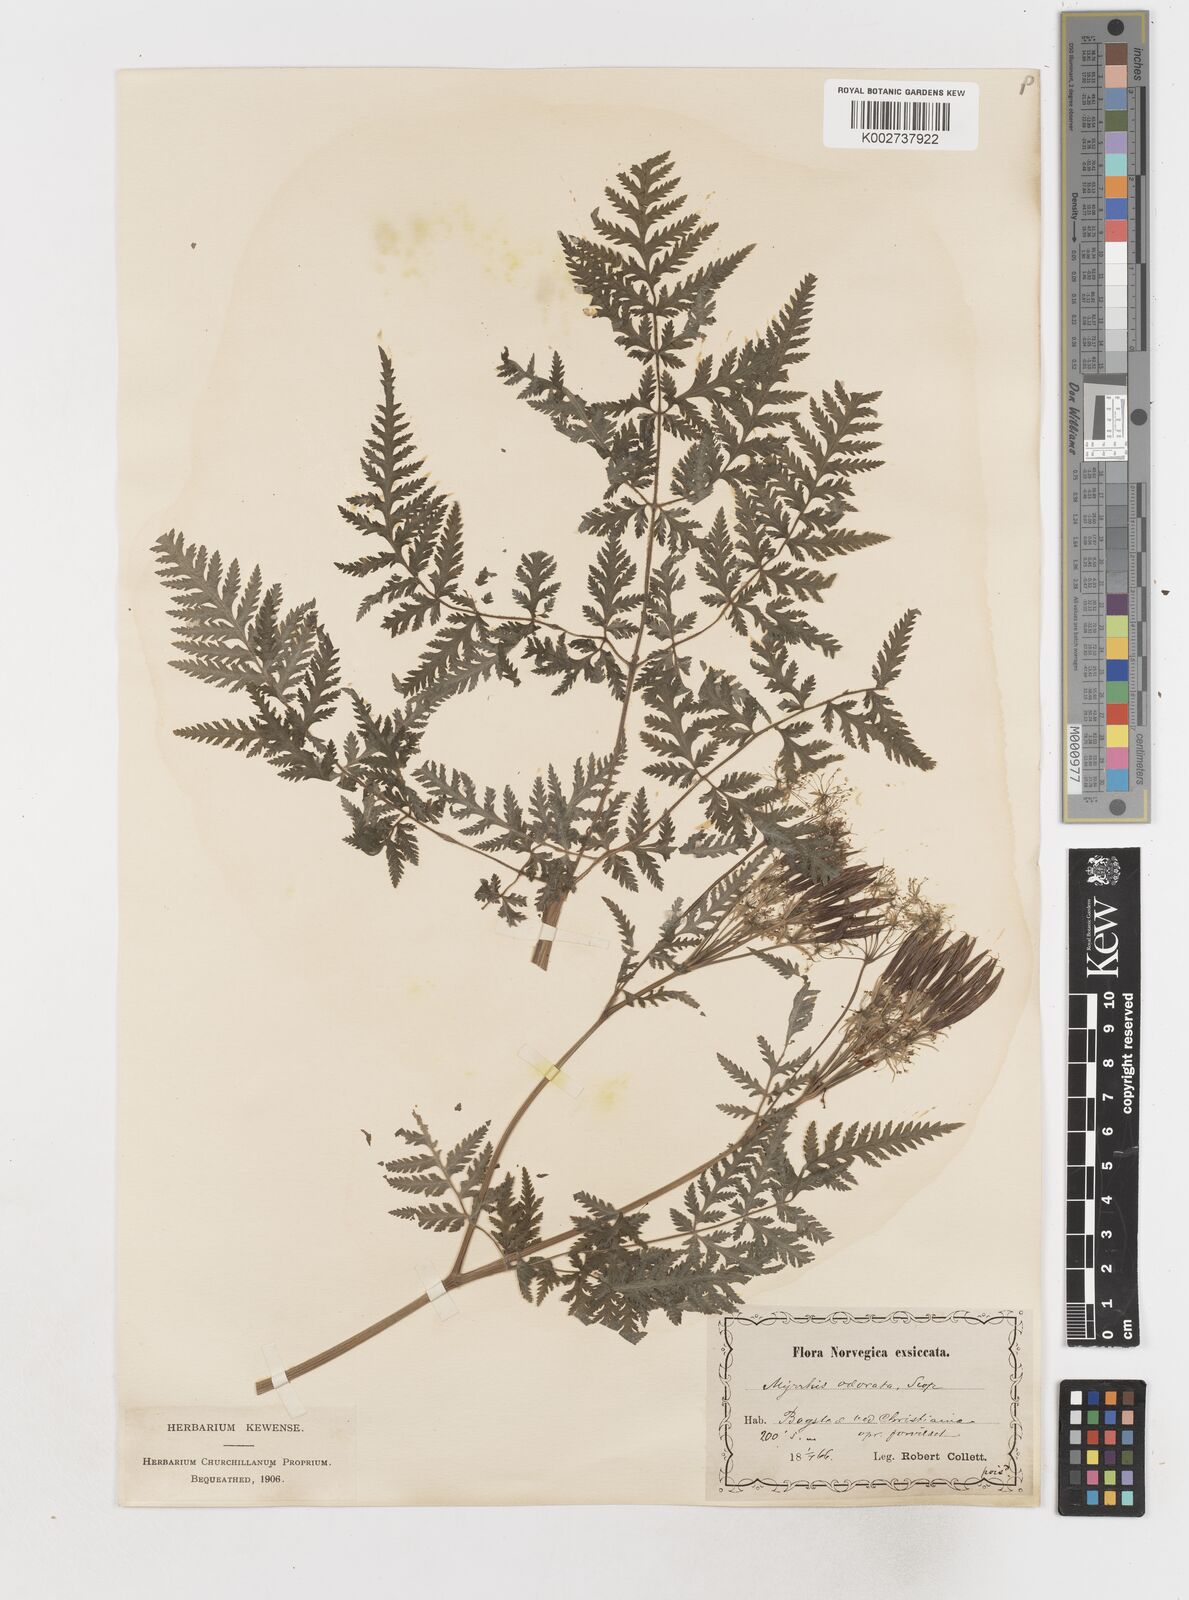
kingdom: Plantae
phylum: Tracheophyta
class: Magnoliopsida
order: Apiales
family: Apiaceae
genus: Myrrhis
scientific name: Myrrhis odorata
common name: Sweet cicely
